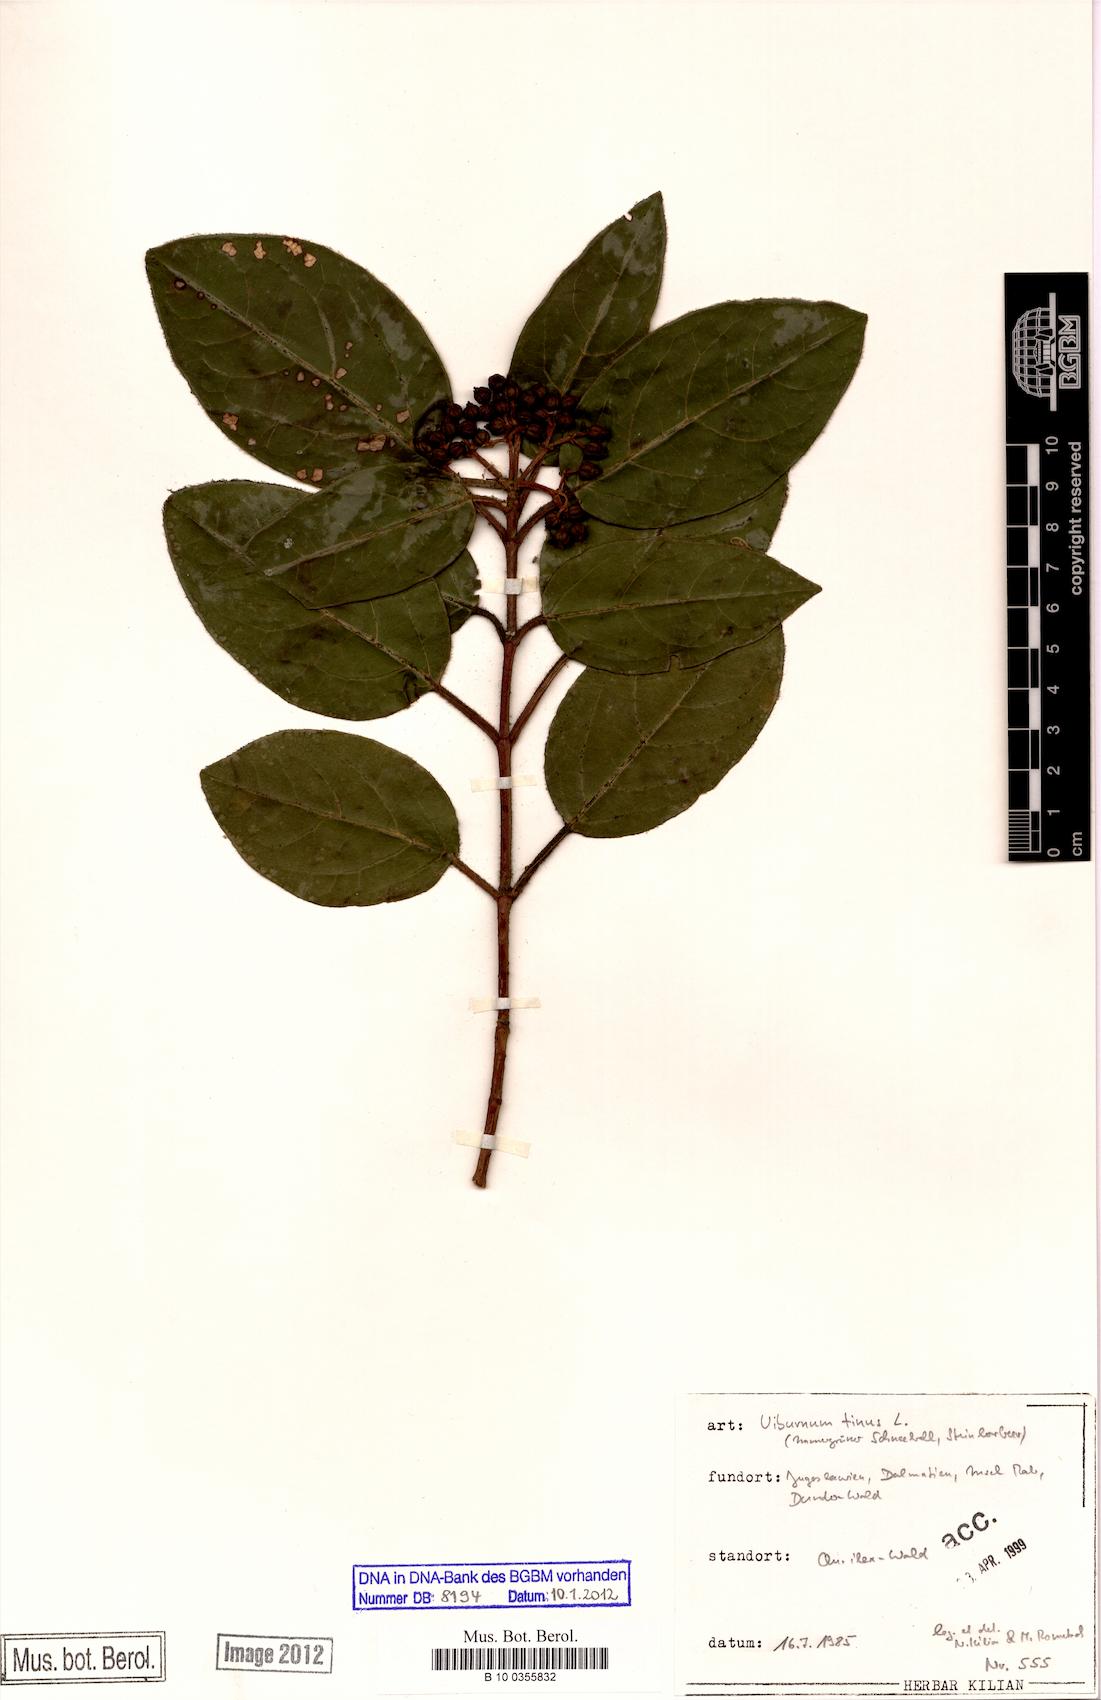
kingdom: Plantae
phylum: Tracheophyta
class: Magnoliopsida
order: Dipsacales
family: Viburnaceae
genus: Viburnum
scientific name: Viburnum tinus
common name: Laurustinus
